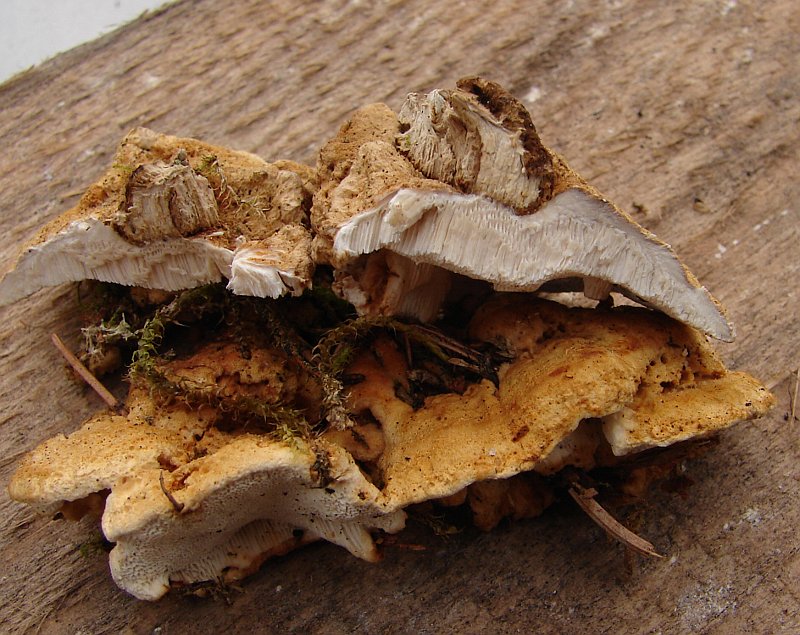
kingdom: Fungi
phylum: Basidiomycota
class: Agaricomycetes
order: Polyporales
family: Polyporaceae
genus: Trametes
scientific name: Trametes ochracea
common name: bæltet læderporesvamp
